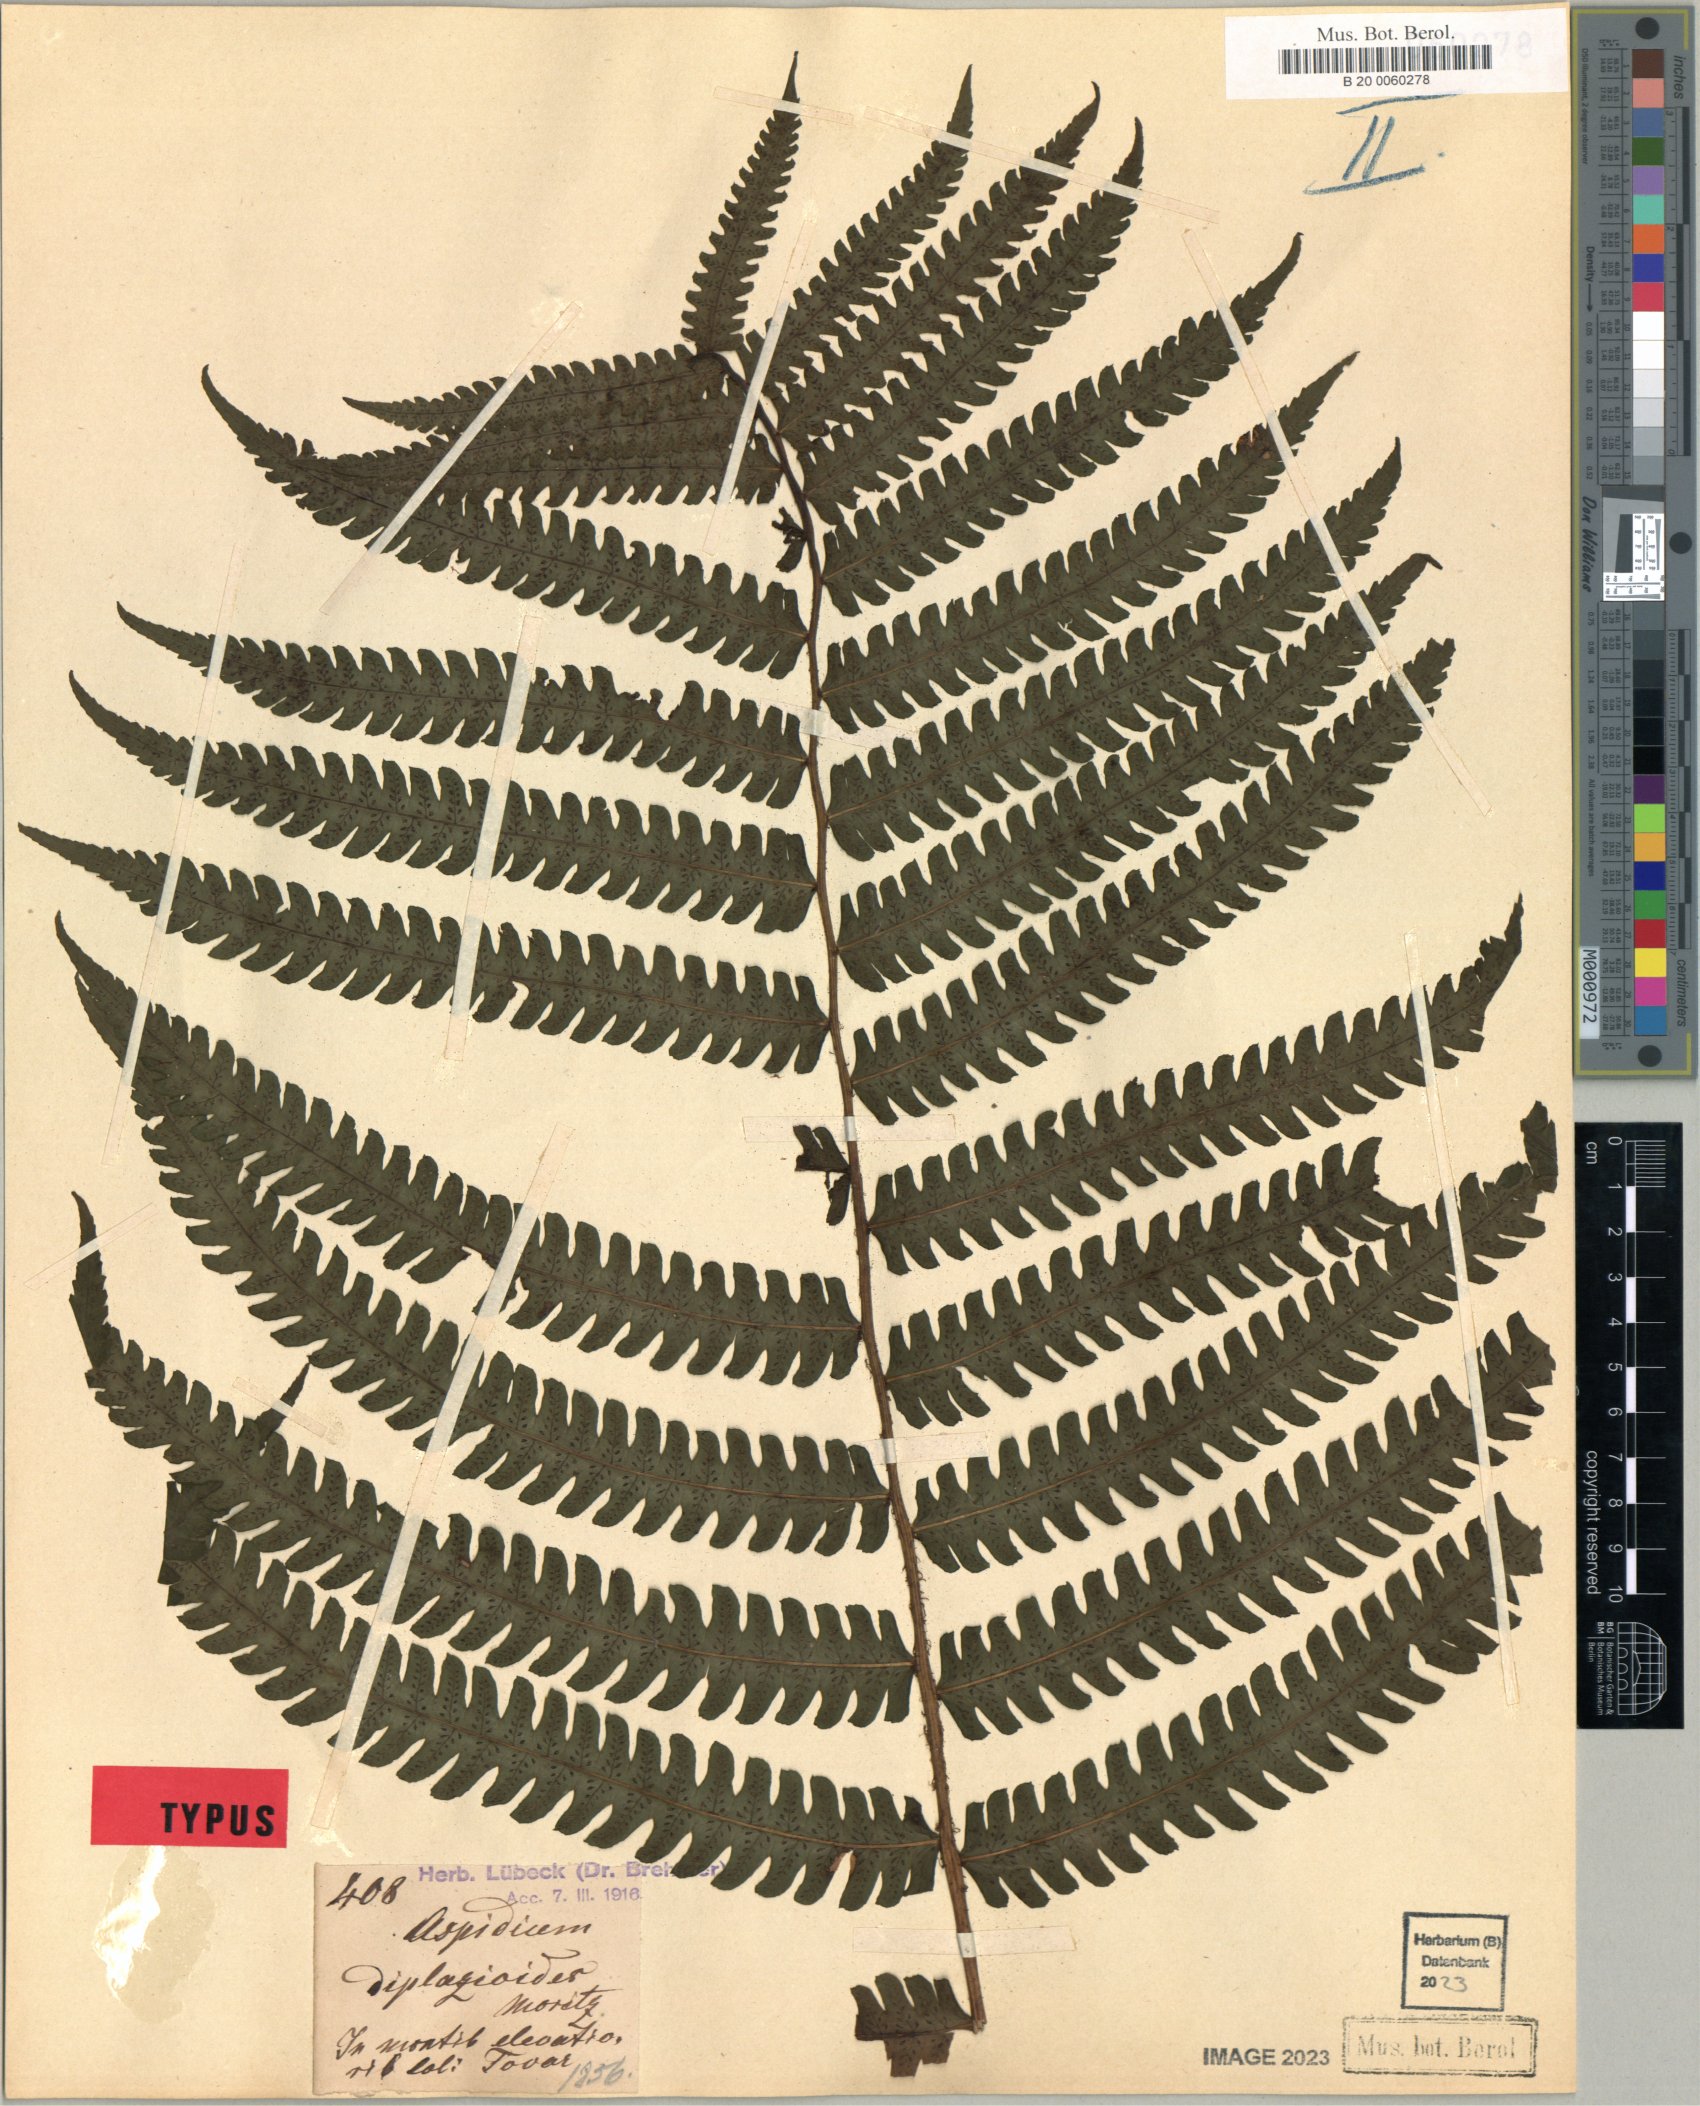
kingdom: Plantae
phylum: Tracheophyta
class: Polypodiopsida
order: Polypodiales
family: Thelypteridaceae
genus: Amauropelta
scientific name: Amauropelta moritziana
